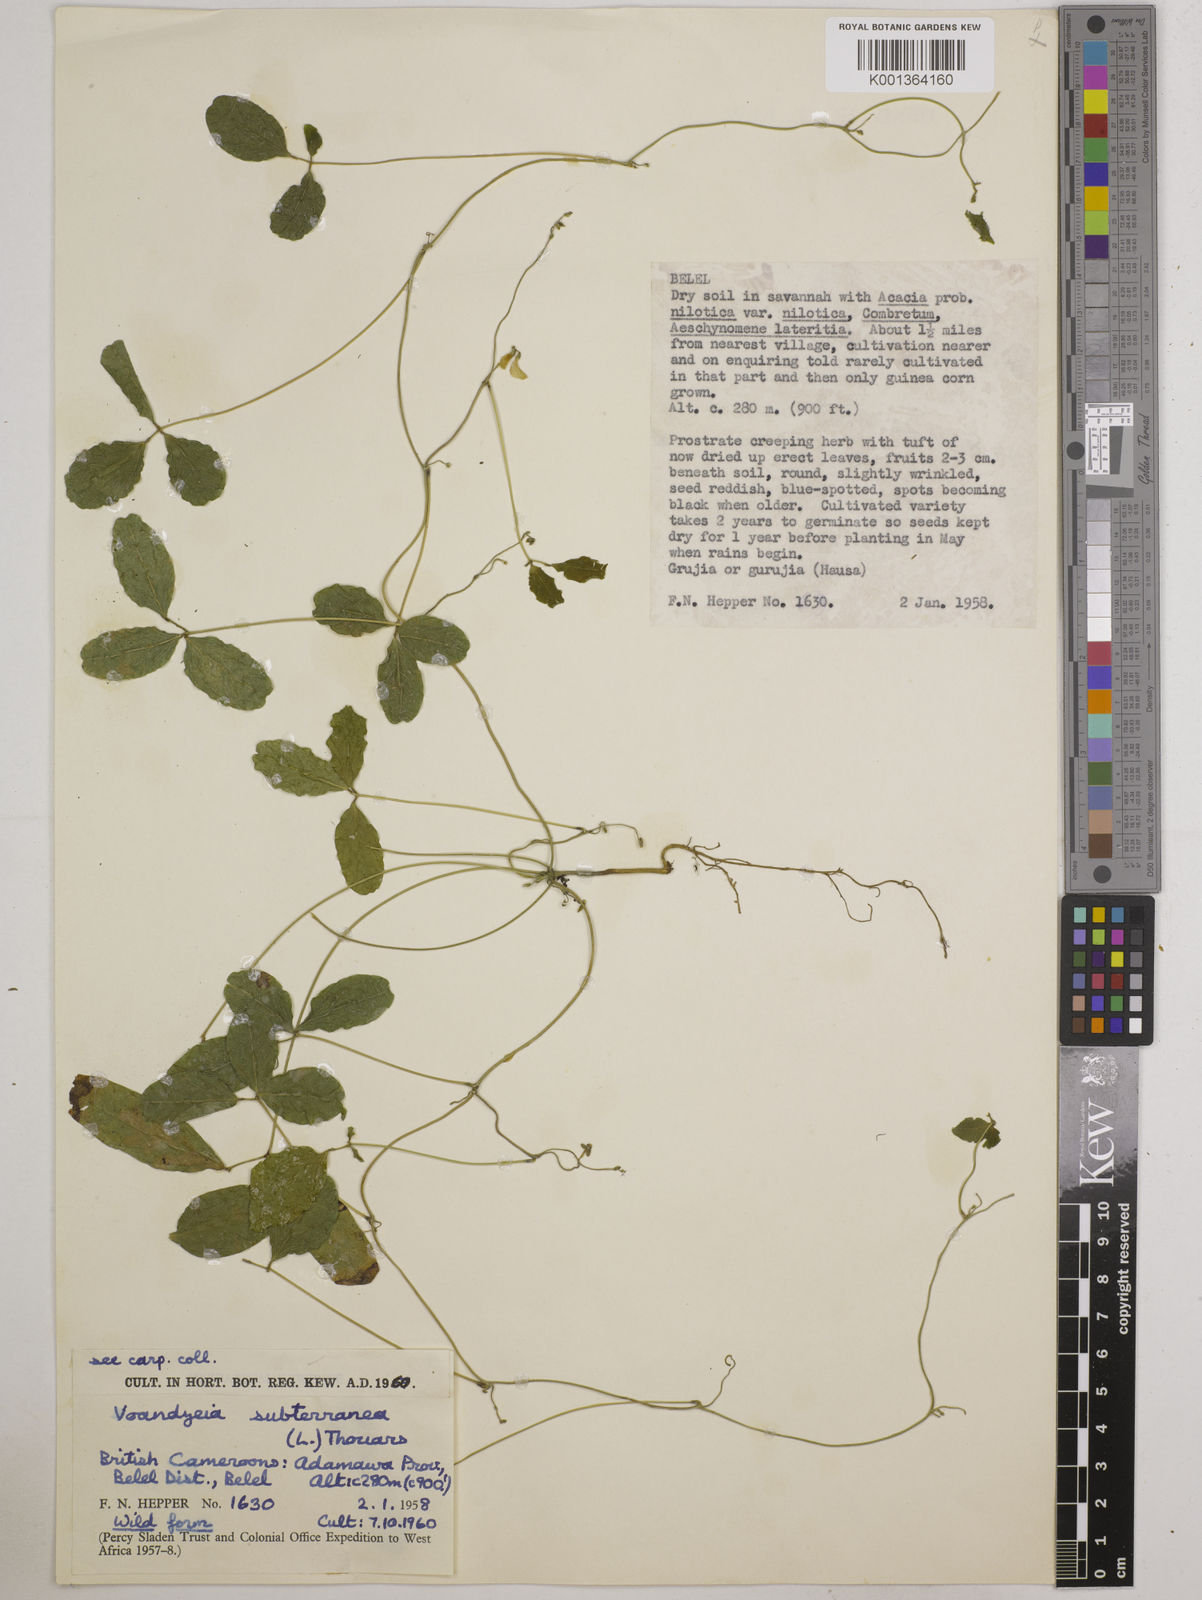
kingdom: Plantae
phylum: Tracheophyta
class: Magnoliopsida
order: Fabales
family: Fabaceae
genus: Vigna
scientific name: Vigna subterranea
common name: Bambara groundnut
